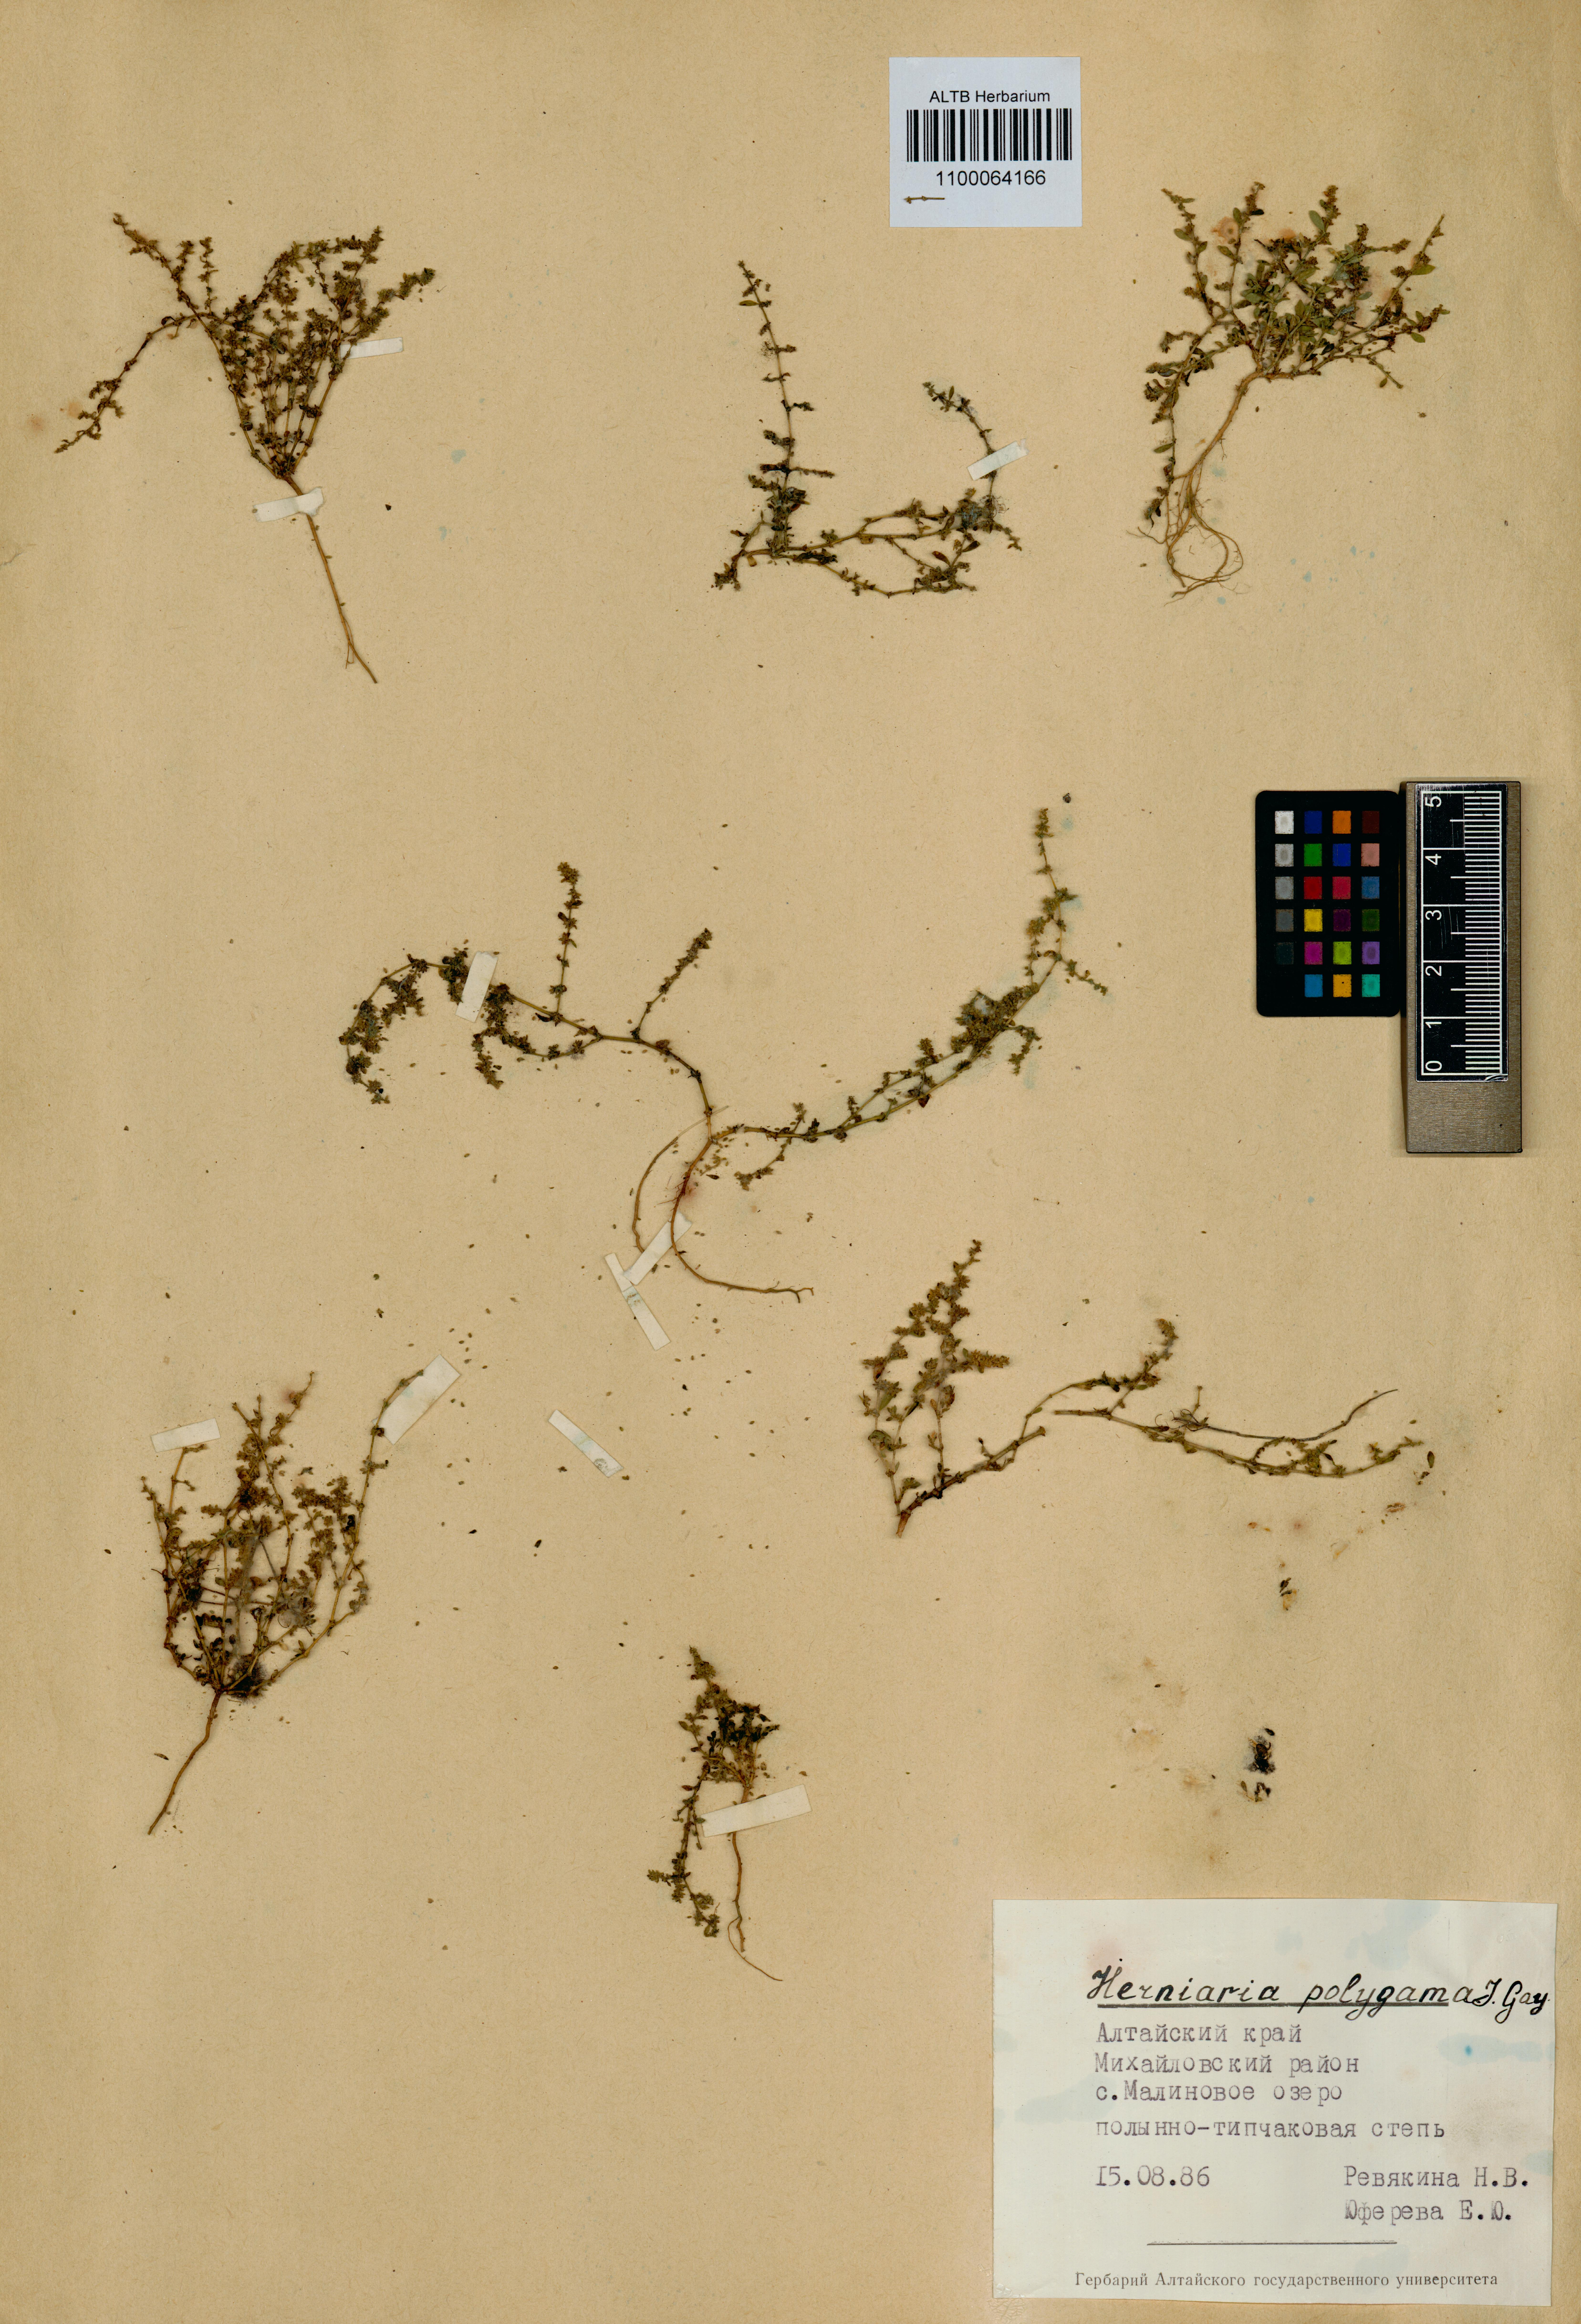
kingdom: Plantae
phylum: Tracheophyta
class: Magnoliopsida
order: Caryophyllales
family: Caryophyllaceae
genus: Herniaria
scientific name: Herniaria polygama
